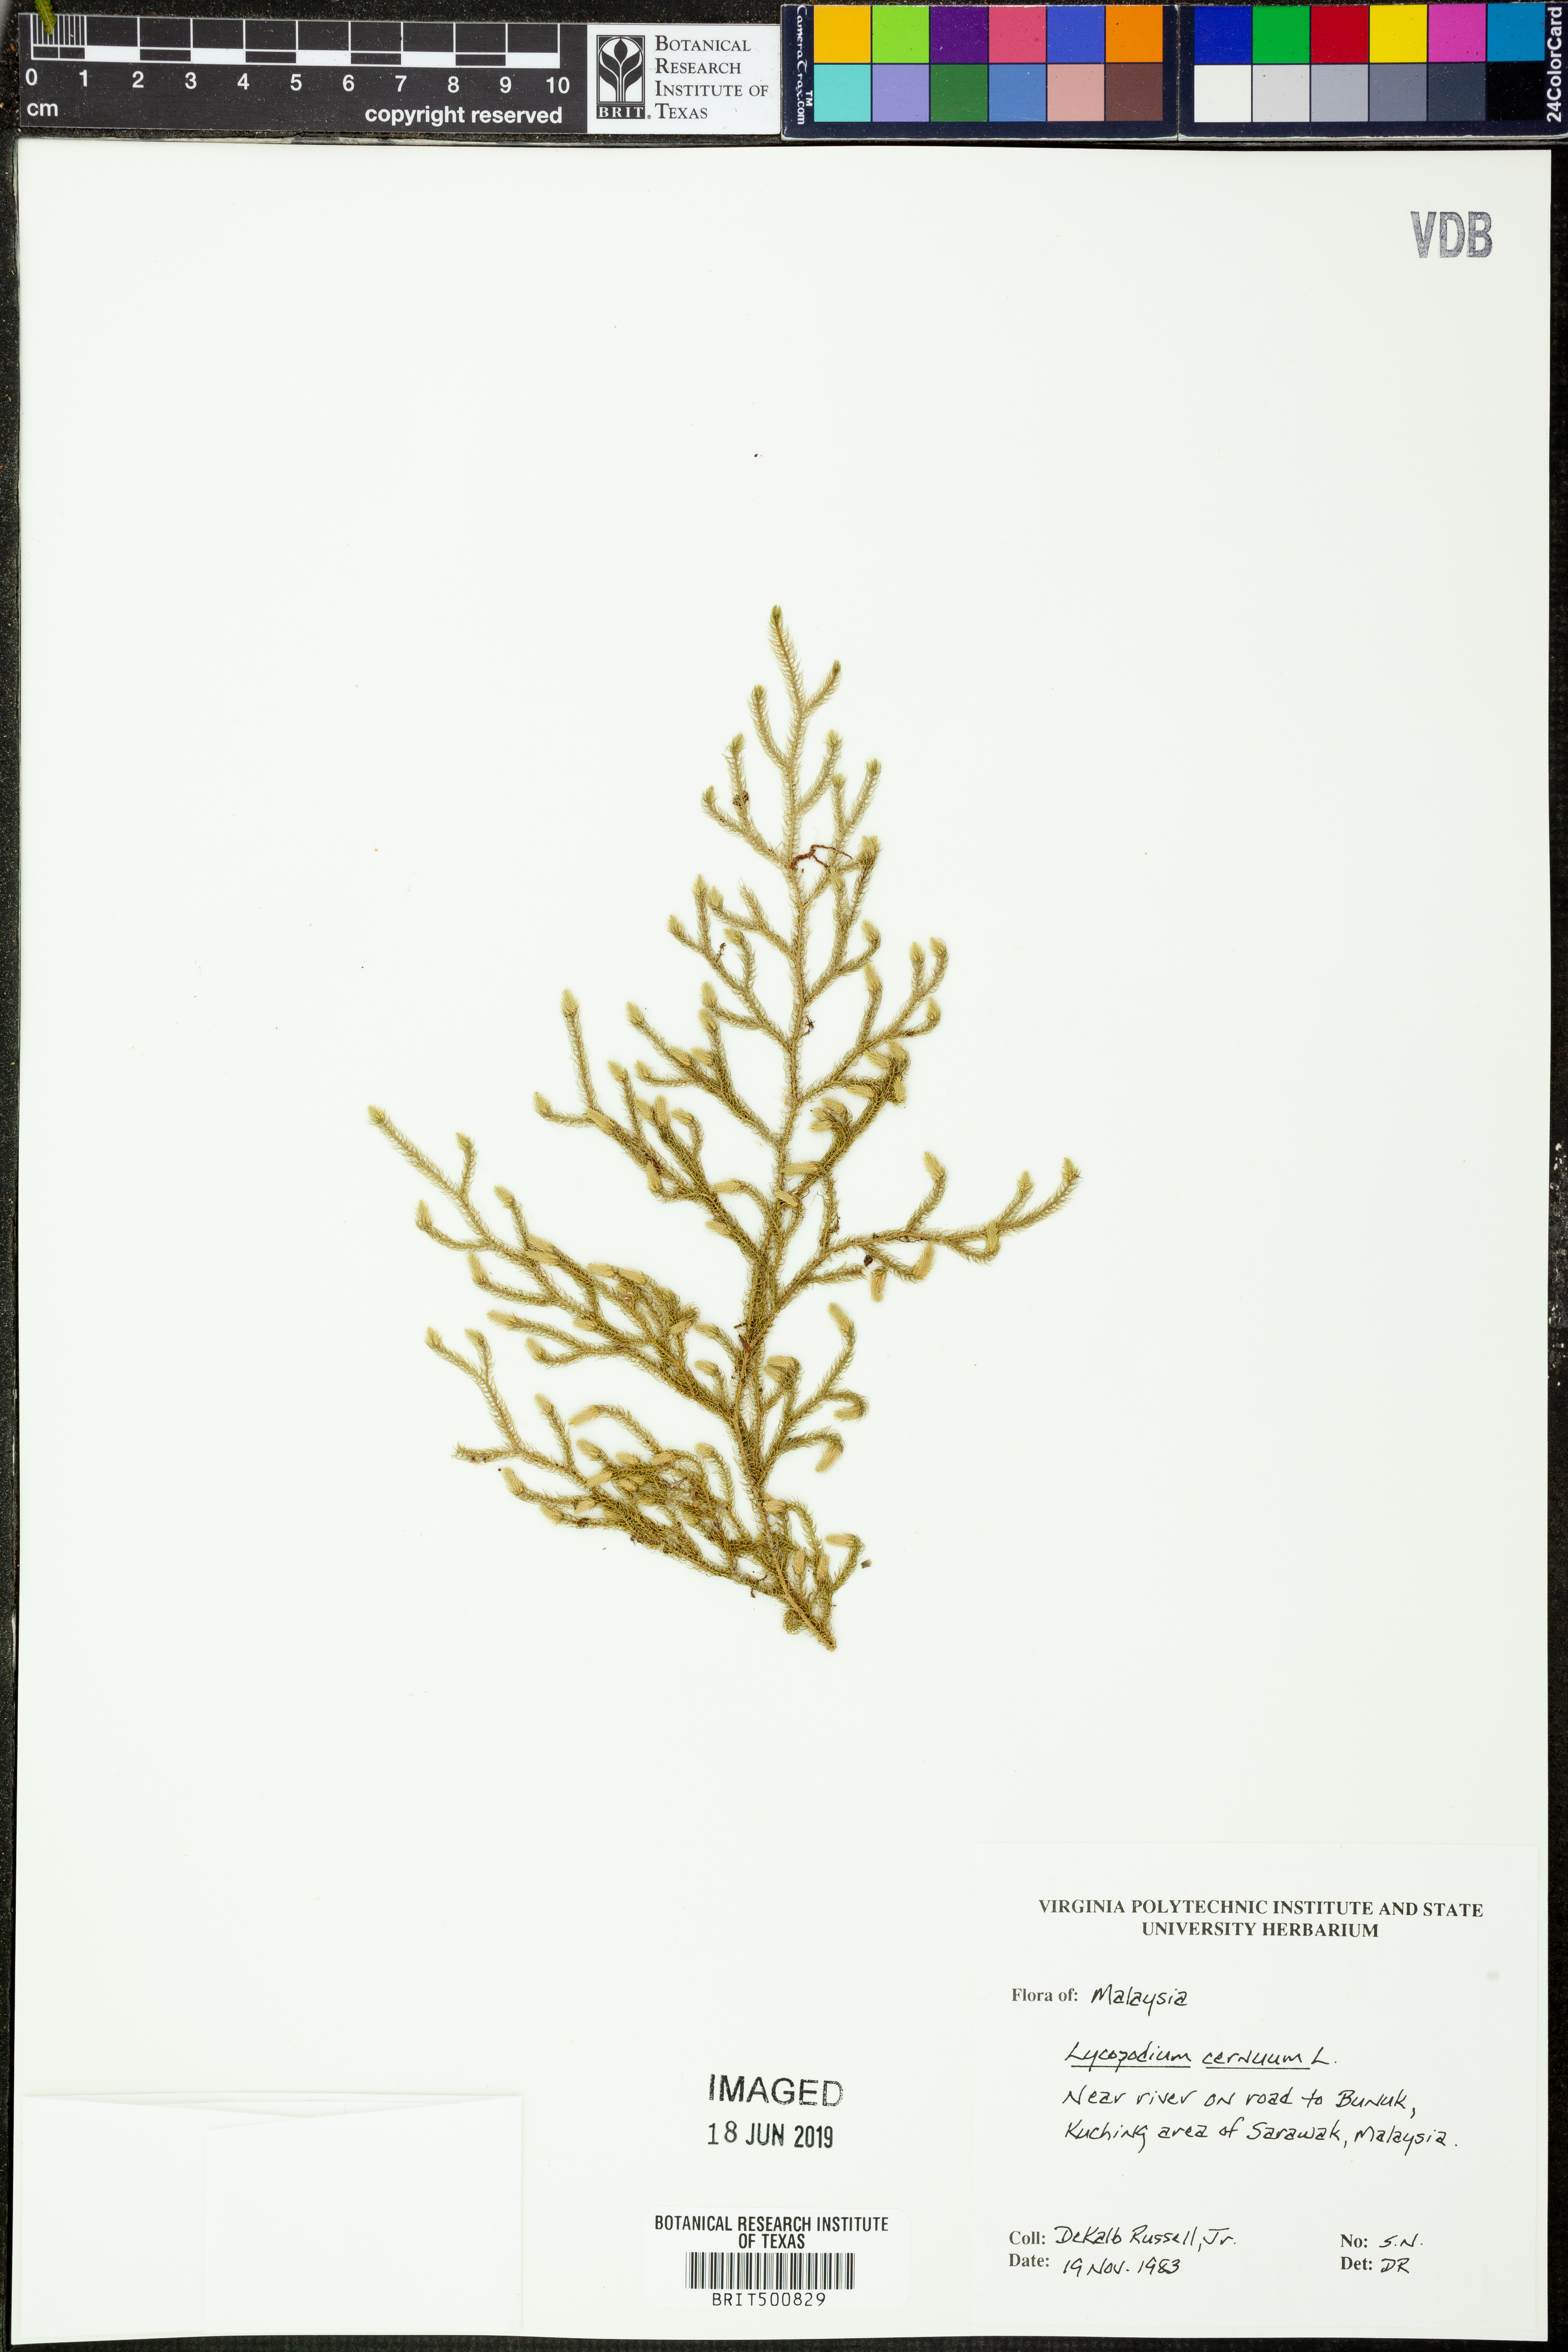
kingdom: Plantae
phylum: Tracheophyta
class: Lycopodiopsida
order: Lycopodiales
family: Lycopodiaceae
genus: Palhinhaea
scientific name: Palhinhaea cernua
